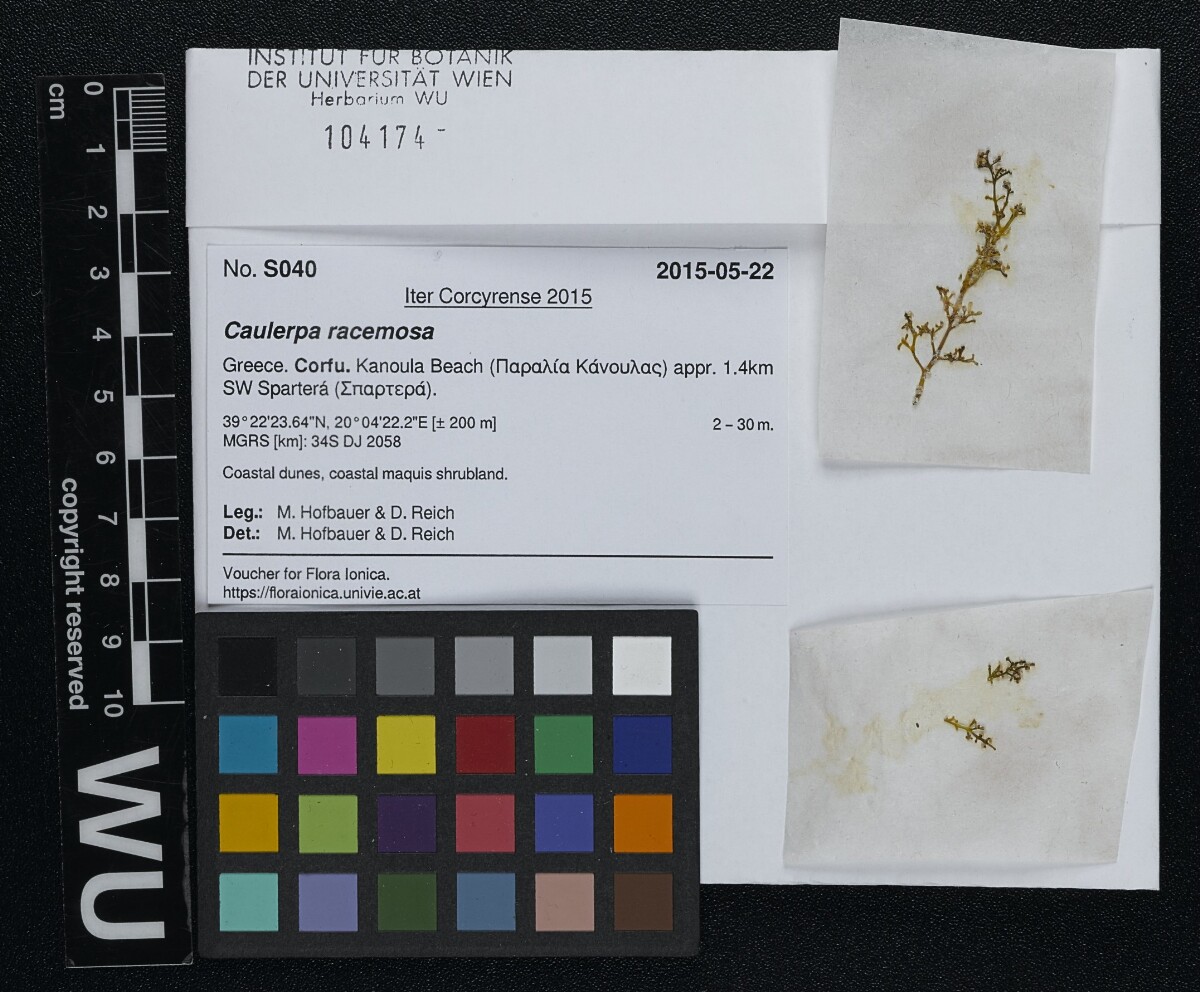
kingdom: Plantae
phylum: Chlorophyta
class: Ulvophyceae
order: Bryopsidales
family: Caulerpaceae
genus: Caulerpa
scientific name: Caulerpa racemosa
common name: Green grape algae
